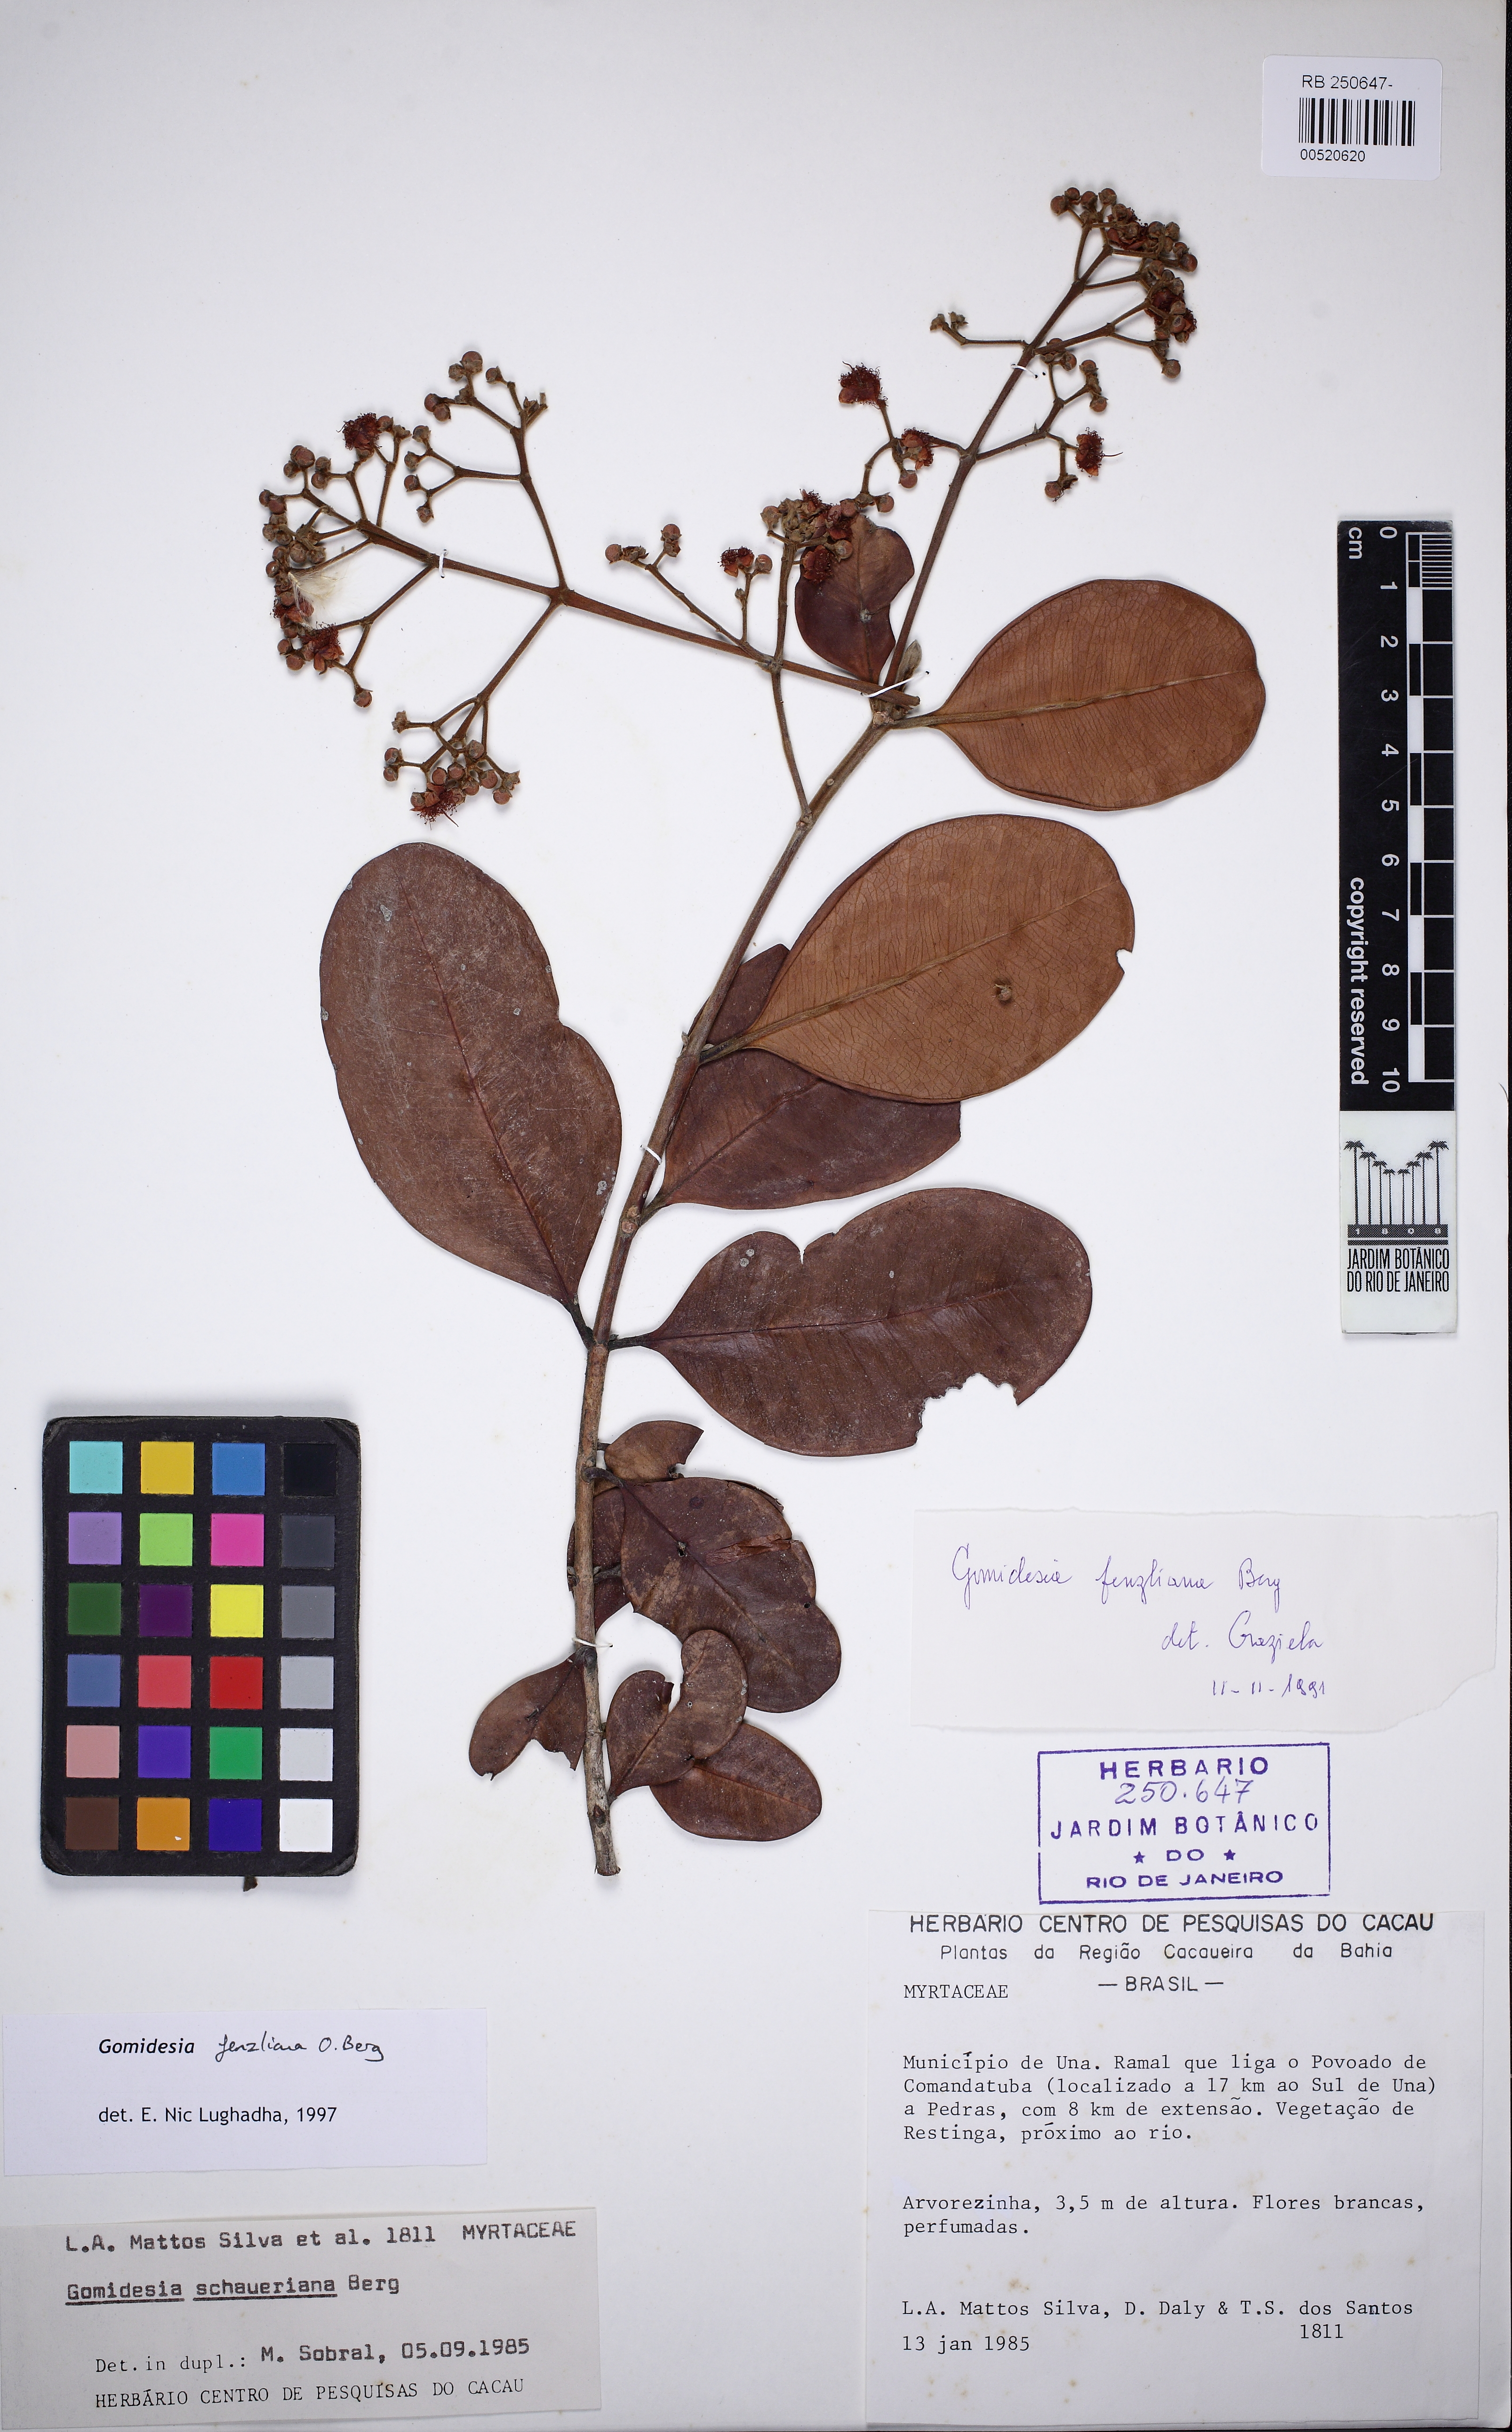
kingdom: Plantae
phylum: Tracheophyta
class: Magnoliopsida
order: Myrtales
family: Myrtaceae
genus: Myrcia
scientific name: Myrcia trichantha
